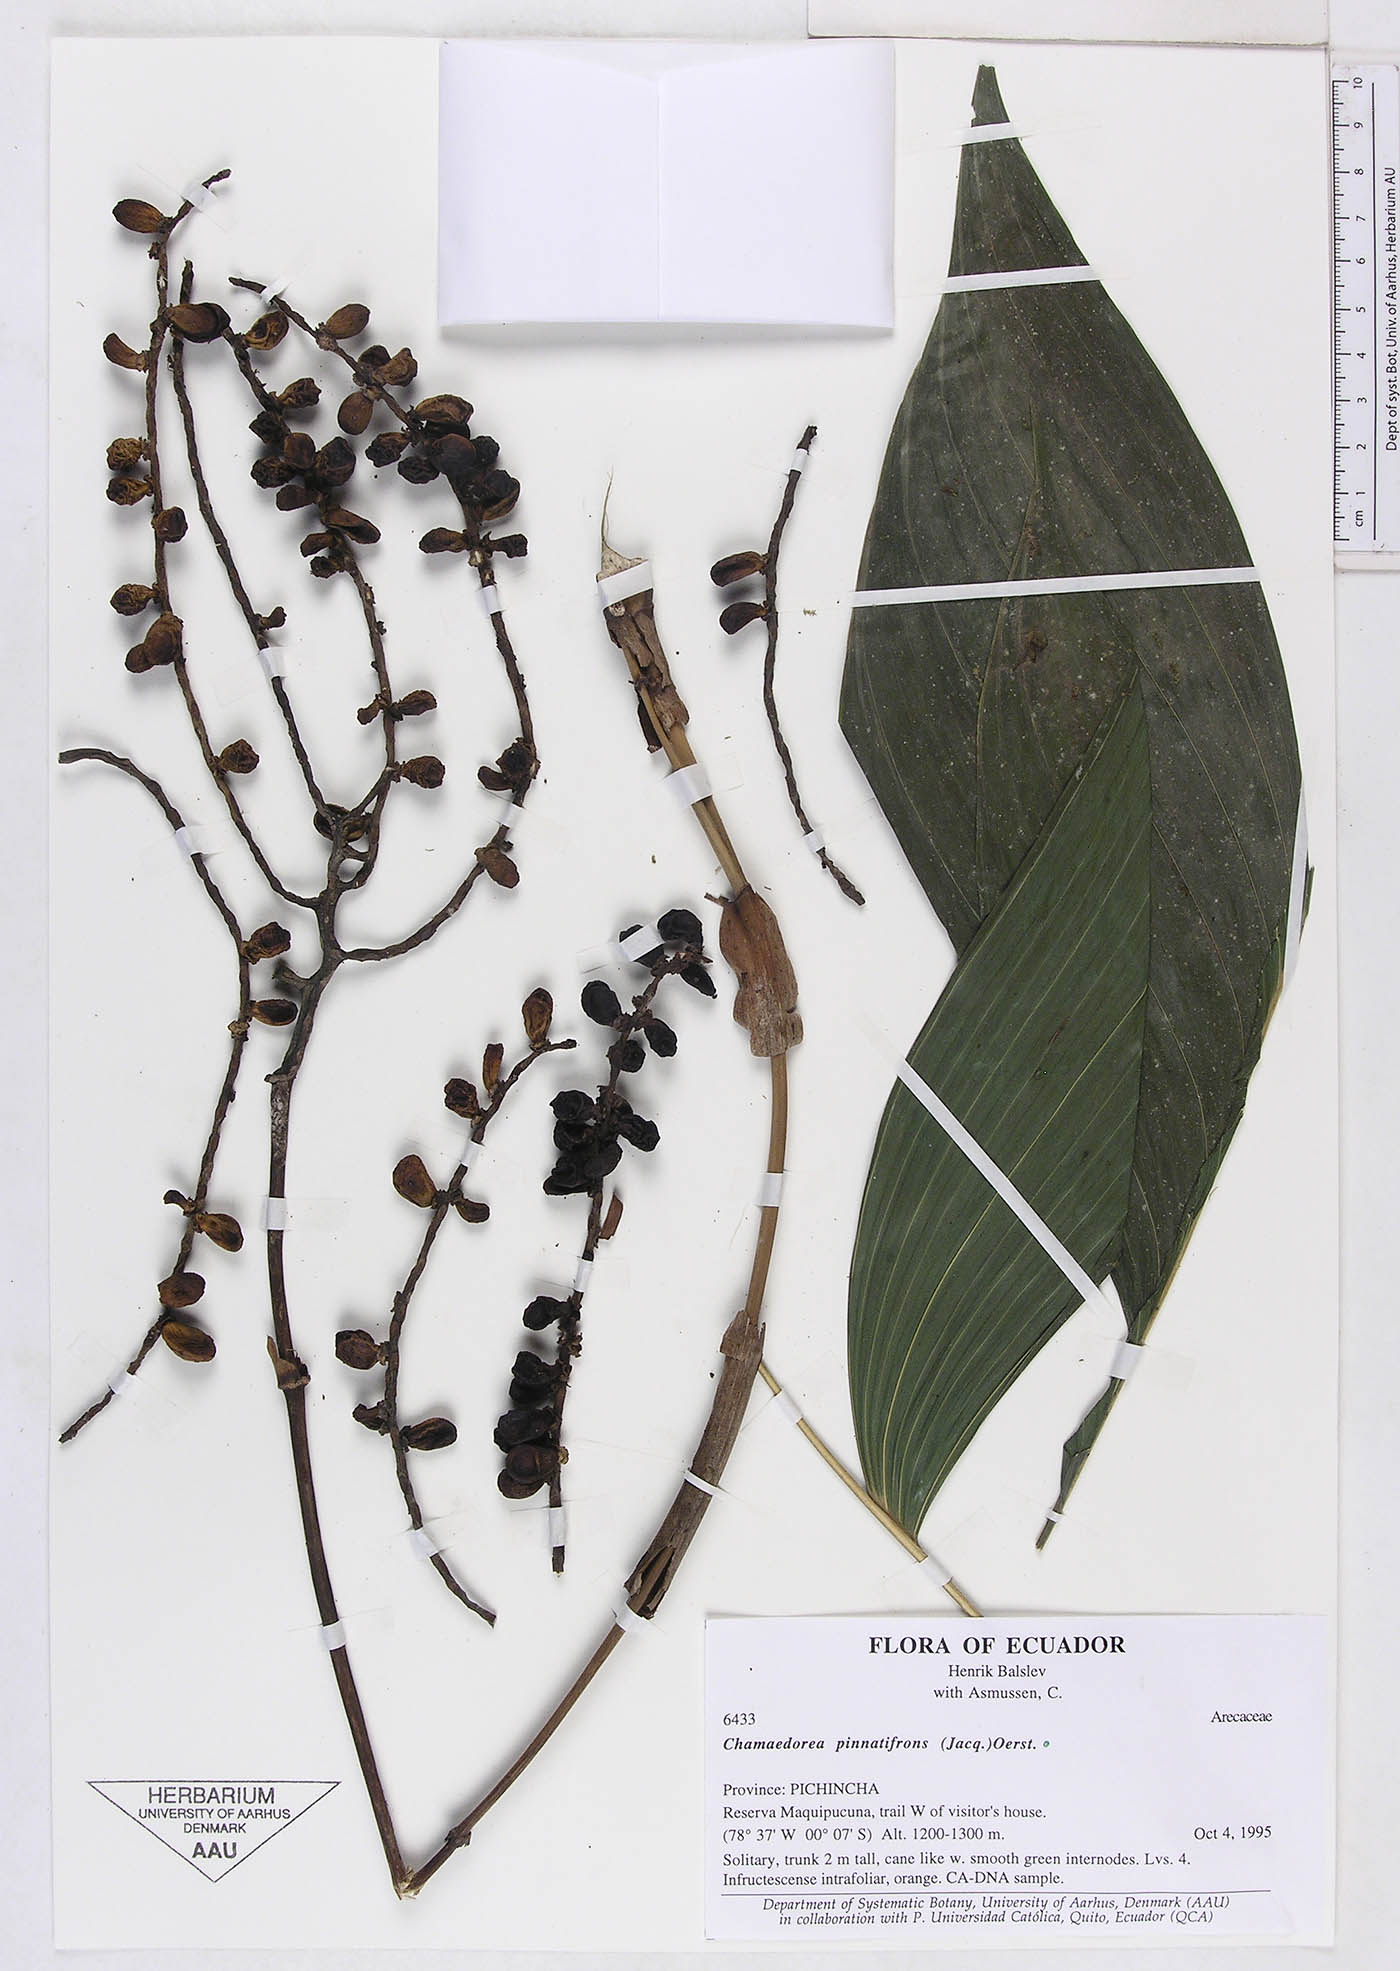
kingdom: Plantae
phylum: Tracheophyta
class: Liliopsida
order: Arecales
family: Arecaceae
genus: Chamaedorea
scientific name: Chamaedorea pinnatifrons
